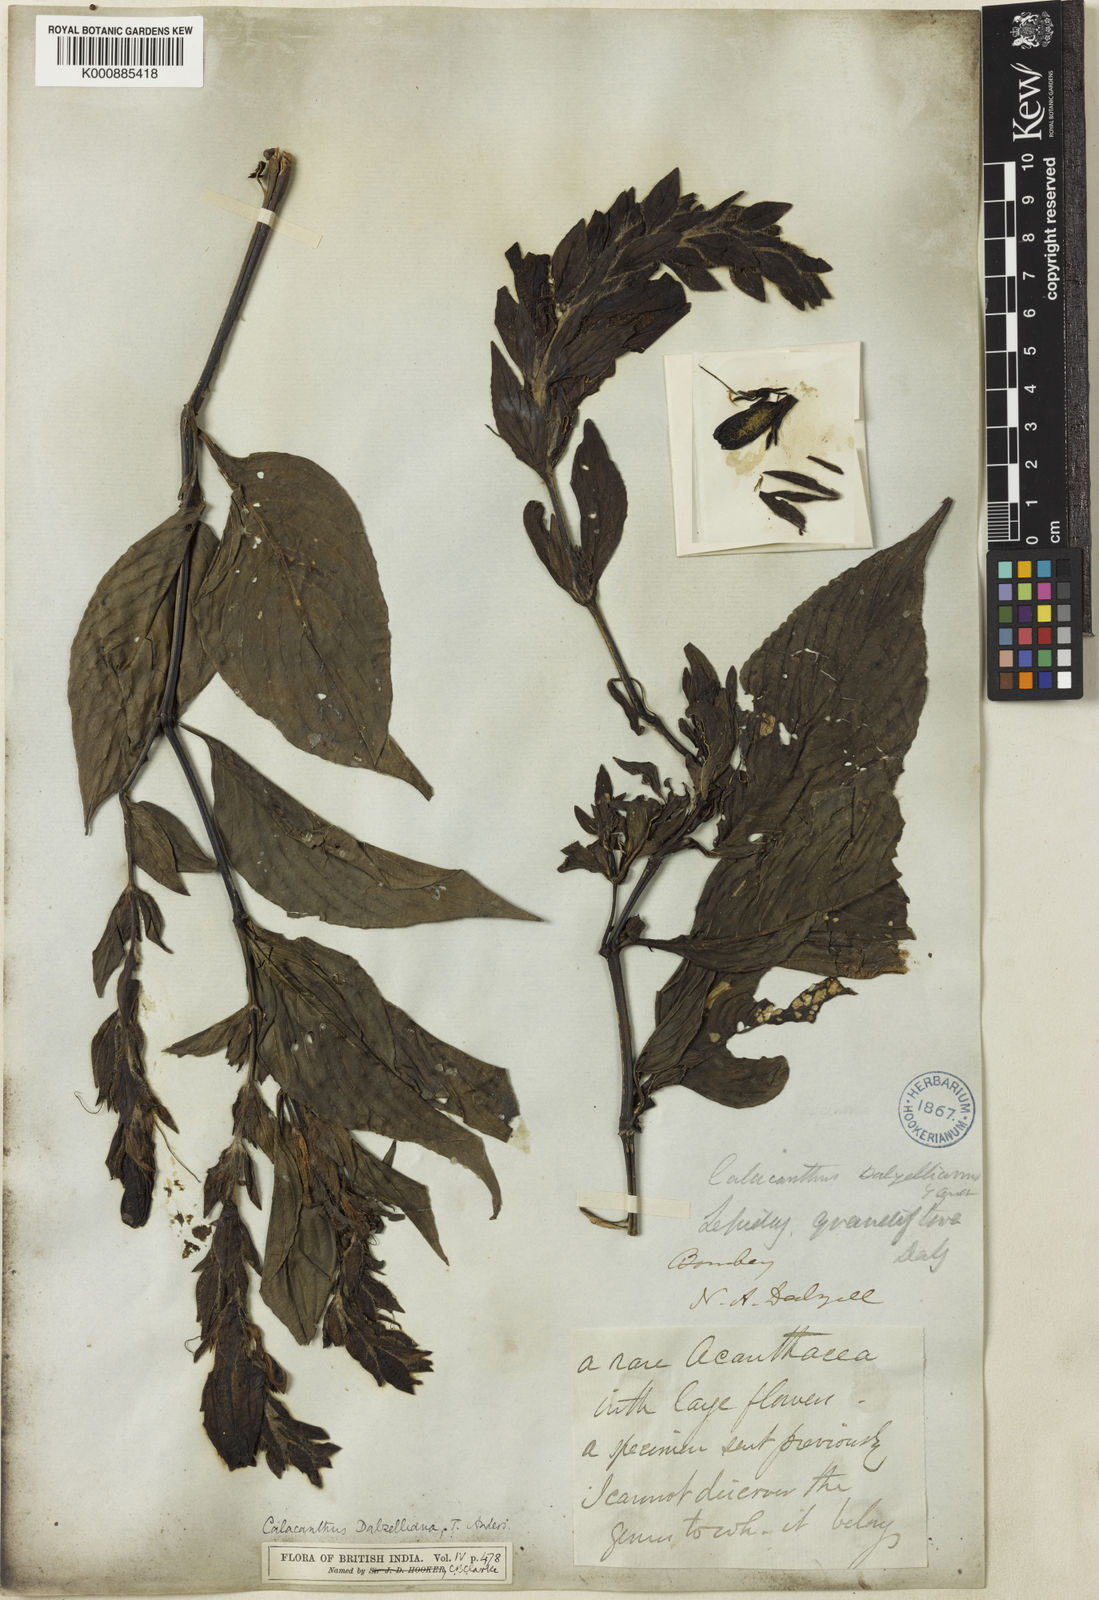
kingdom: Plantae
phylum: Tracheophyta
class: Magnoliopsida
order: Lamiales
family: Acanthaceae
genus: Calacanthus
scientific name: Calacanthus grandiflorus
